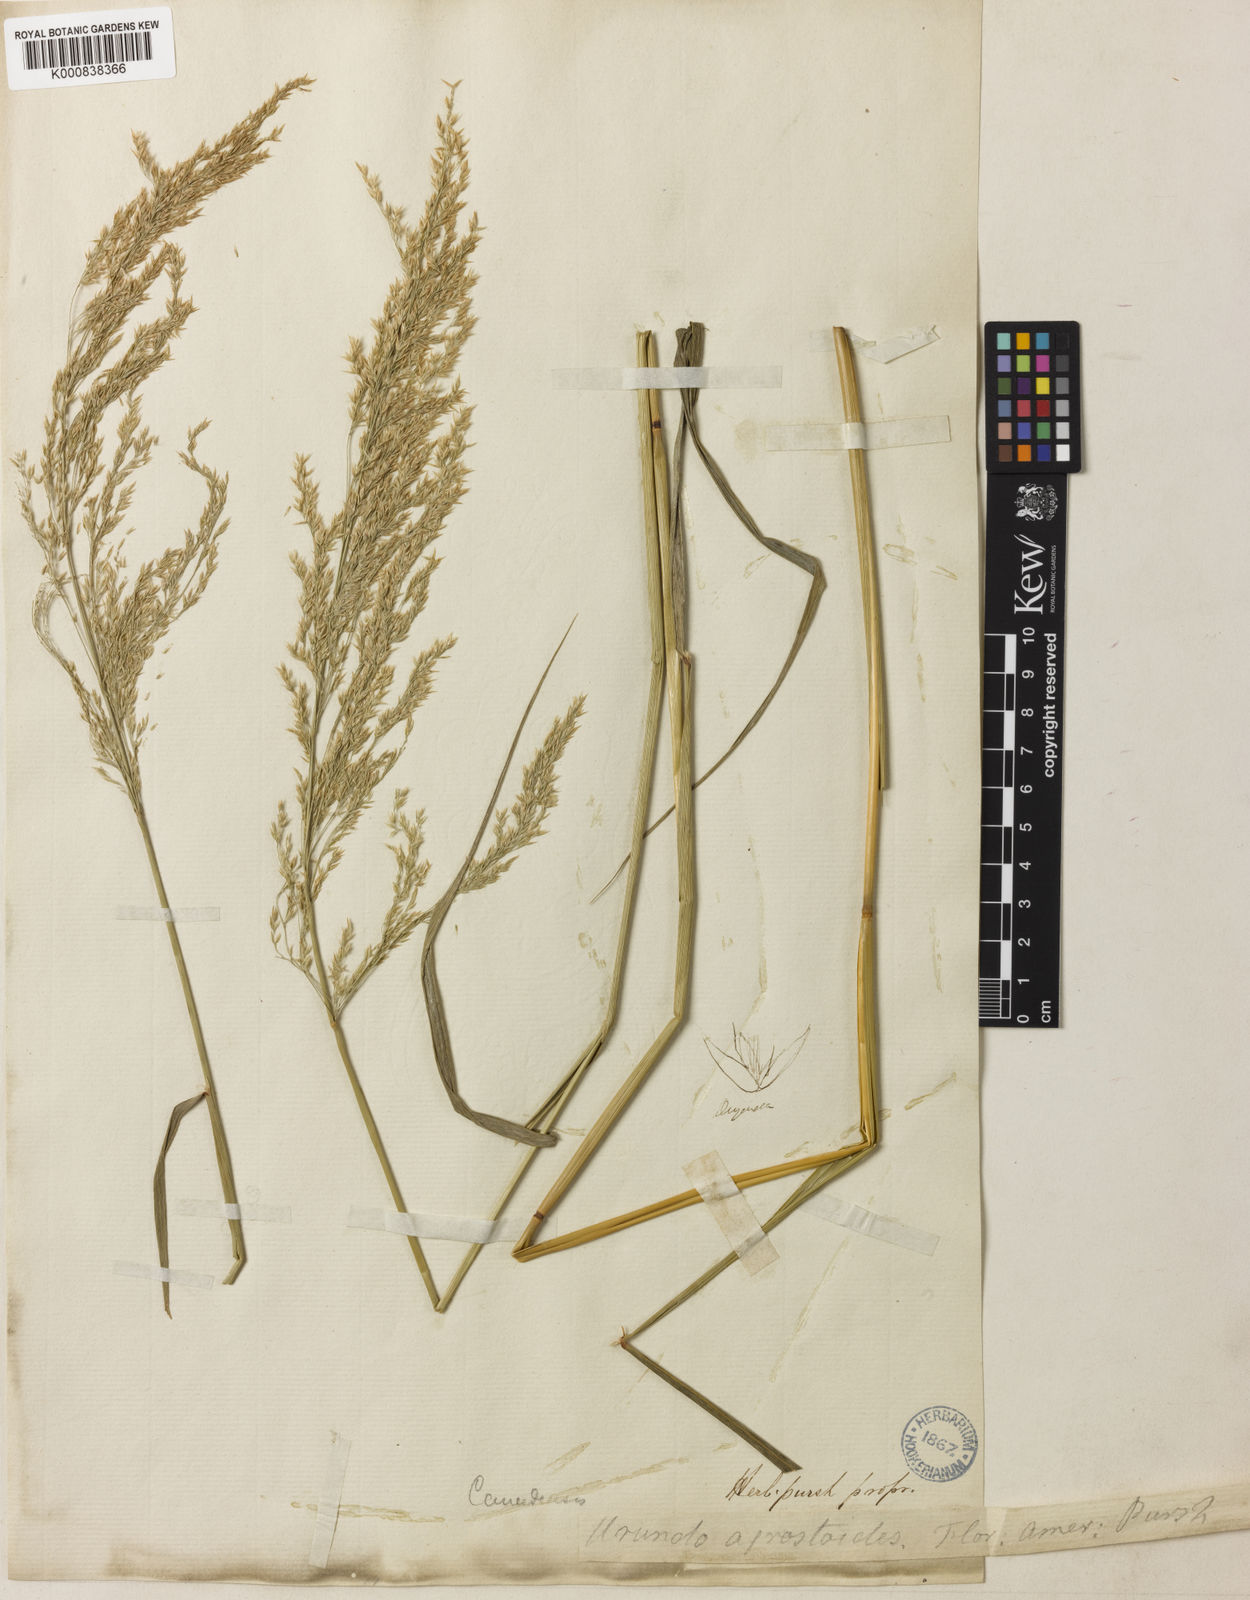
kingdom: Plantae
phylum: Tracheophyta
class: Liliopsida
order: Poales
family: Poaceae
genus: Calamagrostis
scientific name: Calamagrostis canadensis
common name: Canada bluejoint
